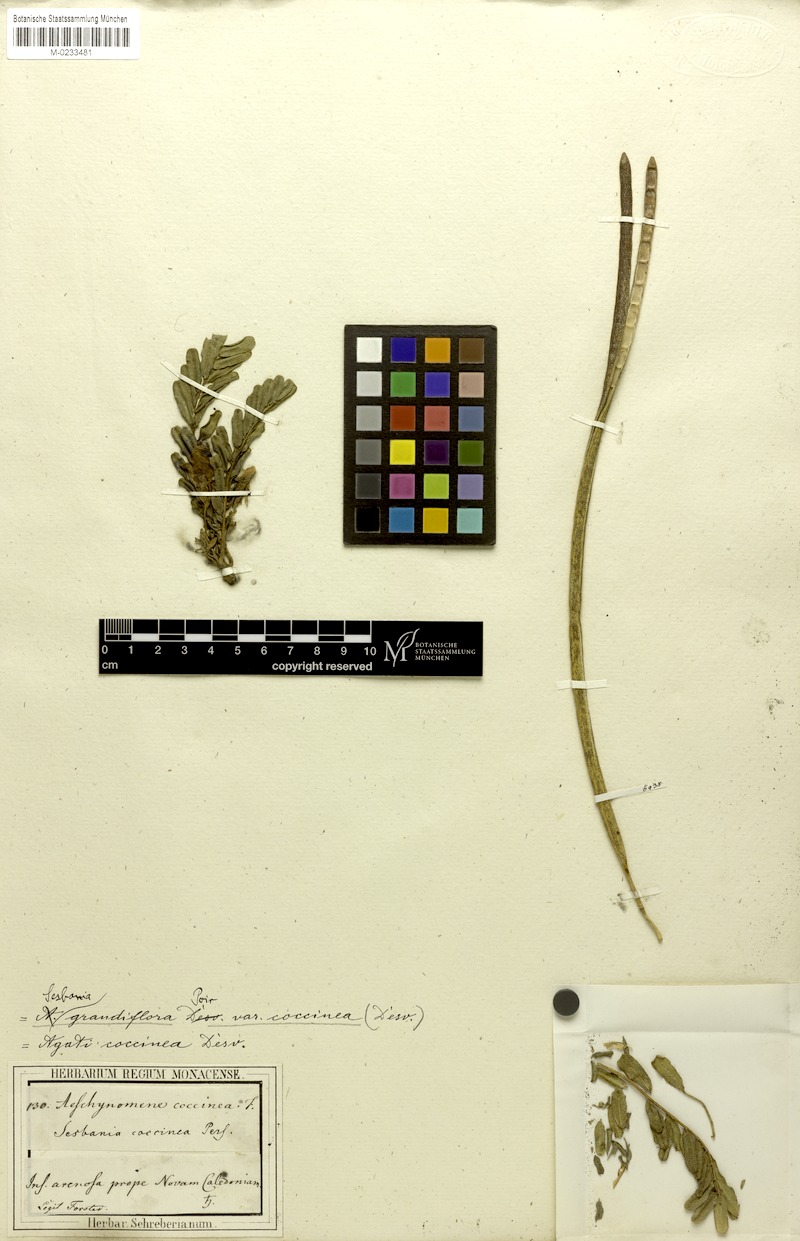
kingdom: Plantae
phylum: Tracheophyta
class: Magnoliopsida
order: Fabales
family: Fabaceae
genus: Sesbania
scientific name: Sesbania grandiflora
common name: Vegetable-hummingbird
